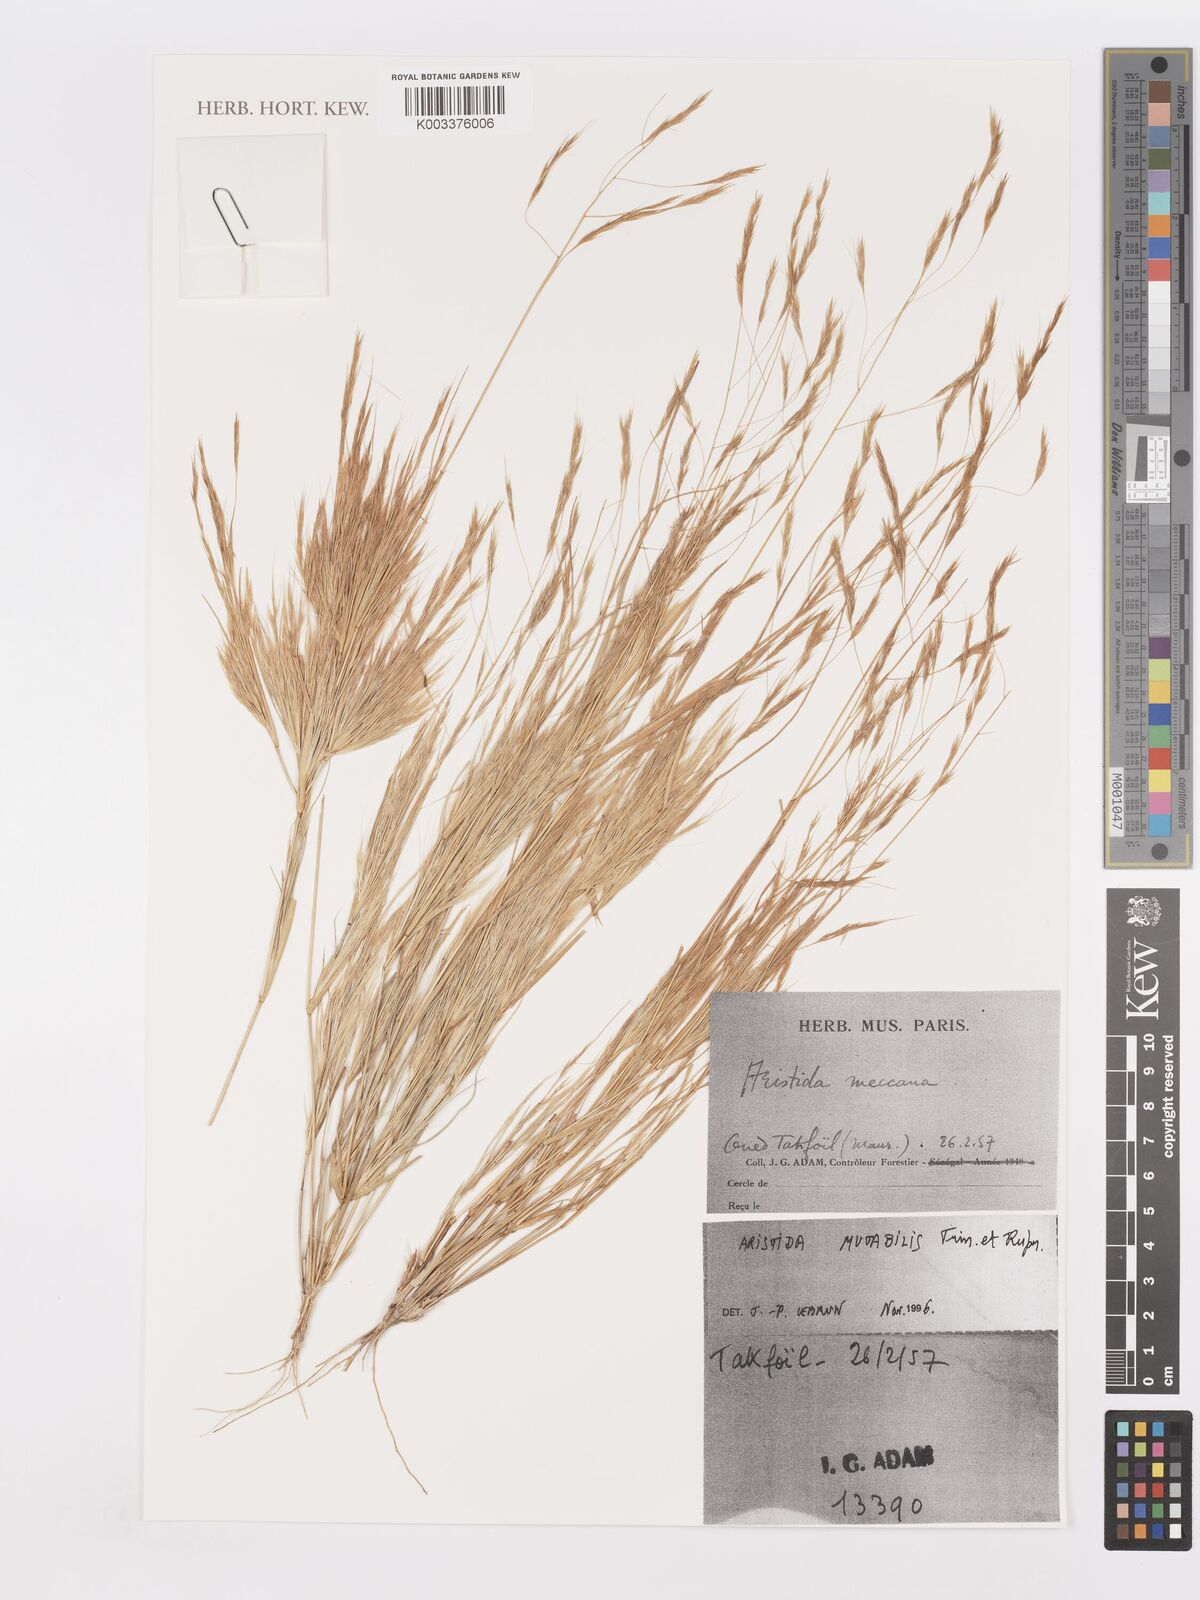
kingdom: Plantae
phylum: Tracheophyta
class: Liliopsida
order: Poales
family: Poaceae
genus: Aristida
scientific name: Aristida mutabilis
